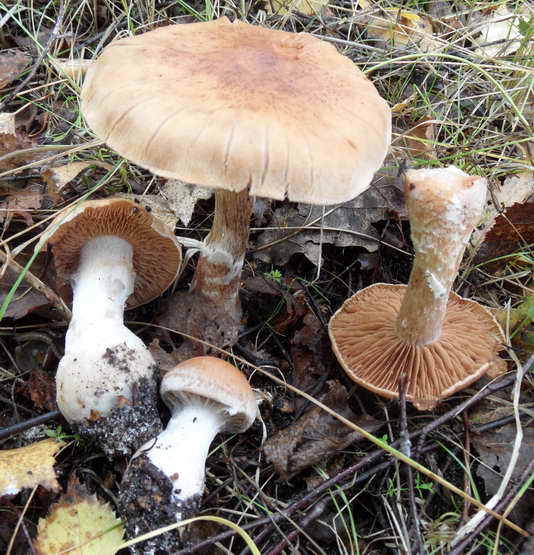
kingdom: Fungi
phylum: Basidiomycota
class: Agaricomycetes
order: Agaricales
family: Cortinariaceae
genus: Cortinarius
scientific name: Cortinarius bivelus
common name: orangebrun slørhat
